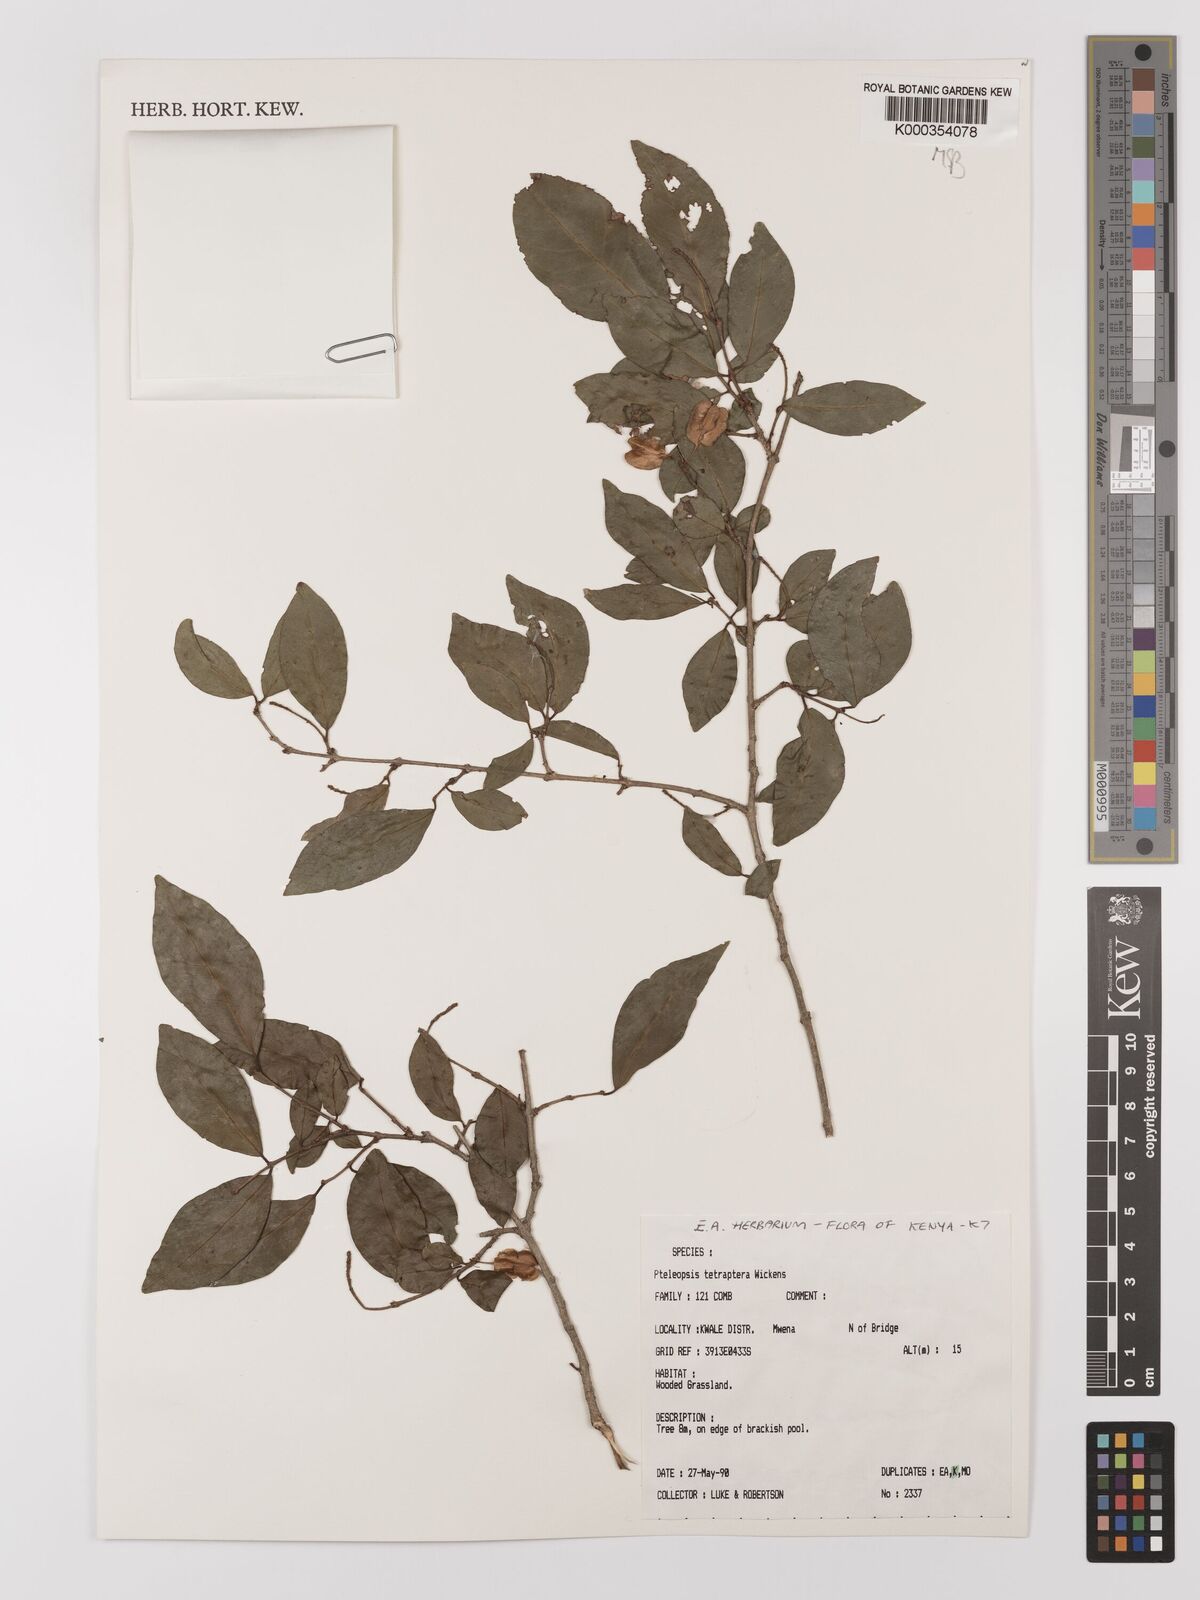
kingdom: Plantae
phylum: Tracheophyta
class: Magnoliopsida
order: Myrtales
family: Combretaceae
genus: Terminalia
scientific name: Terminalia tetraptera
